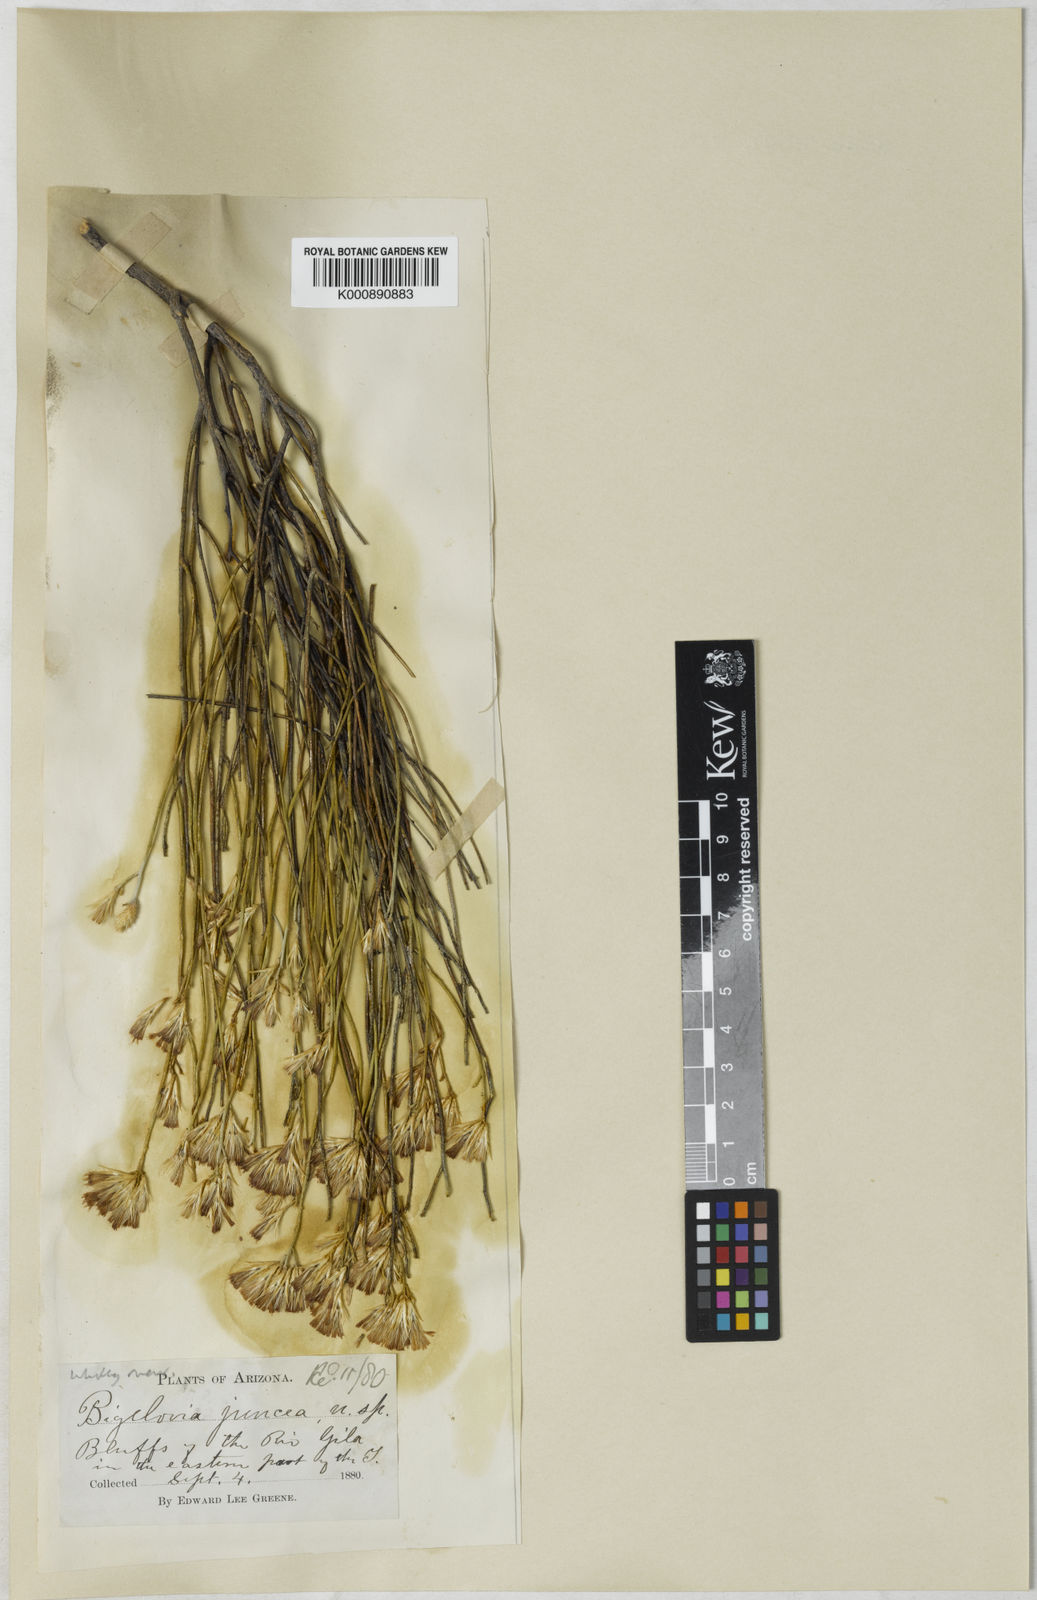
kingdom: Plantae
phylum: Tracheophyta
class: Magnoliopsida
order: Asterales
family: Asteraceae
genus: Ericameria
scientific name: Ericameria nauseosa
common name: Rubber rabbitbrush
